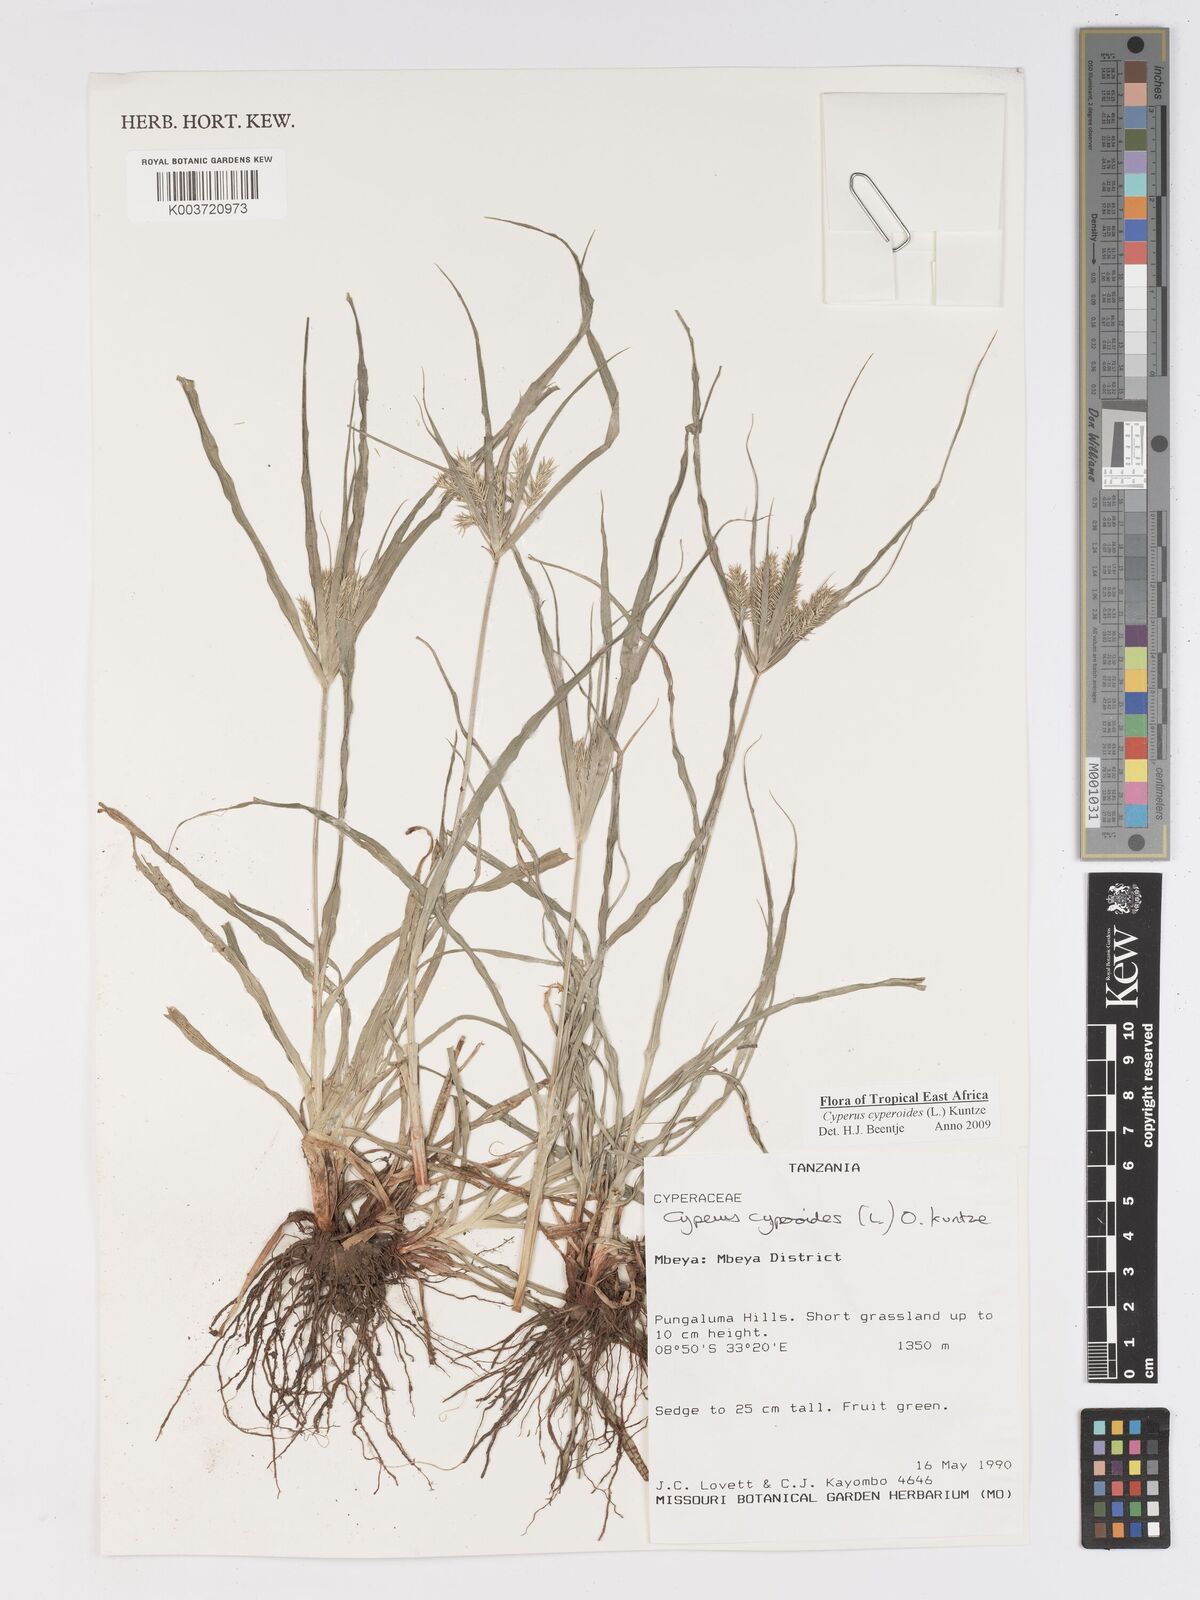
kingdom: Plantae
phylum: Tracheophyta
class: Liliopsida
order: Poales
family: Cyperaceae
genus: Cyperus
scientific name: Cyperus cyperoides
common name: Pacific island flat sedge
